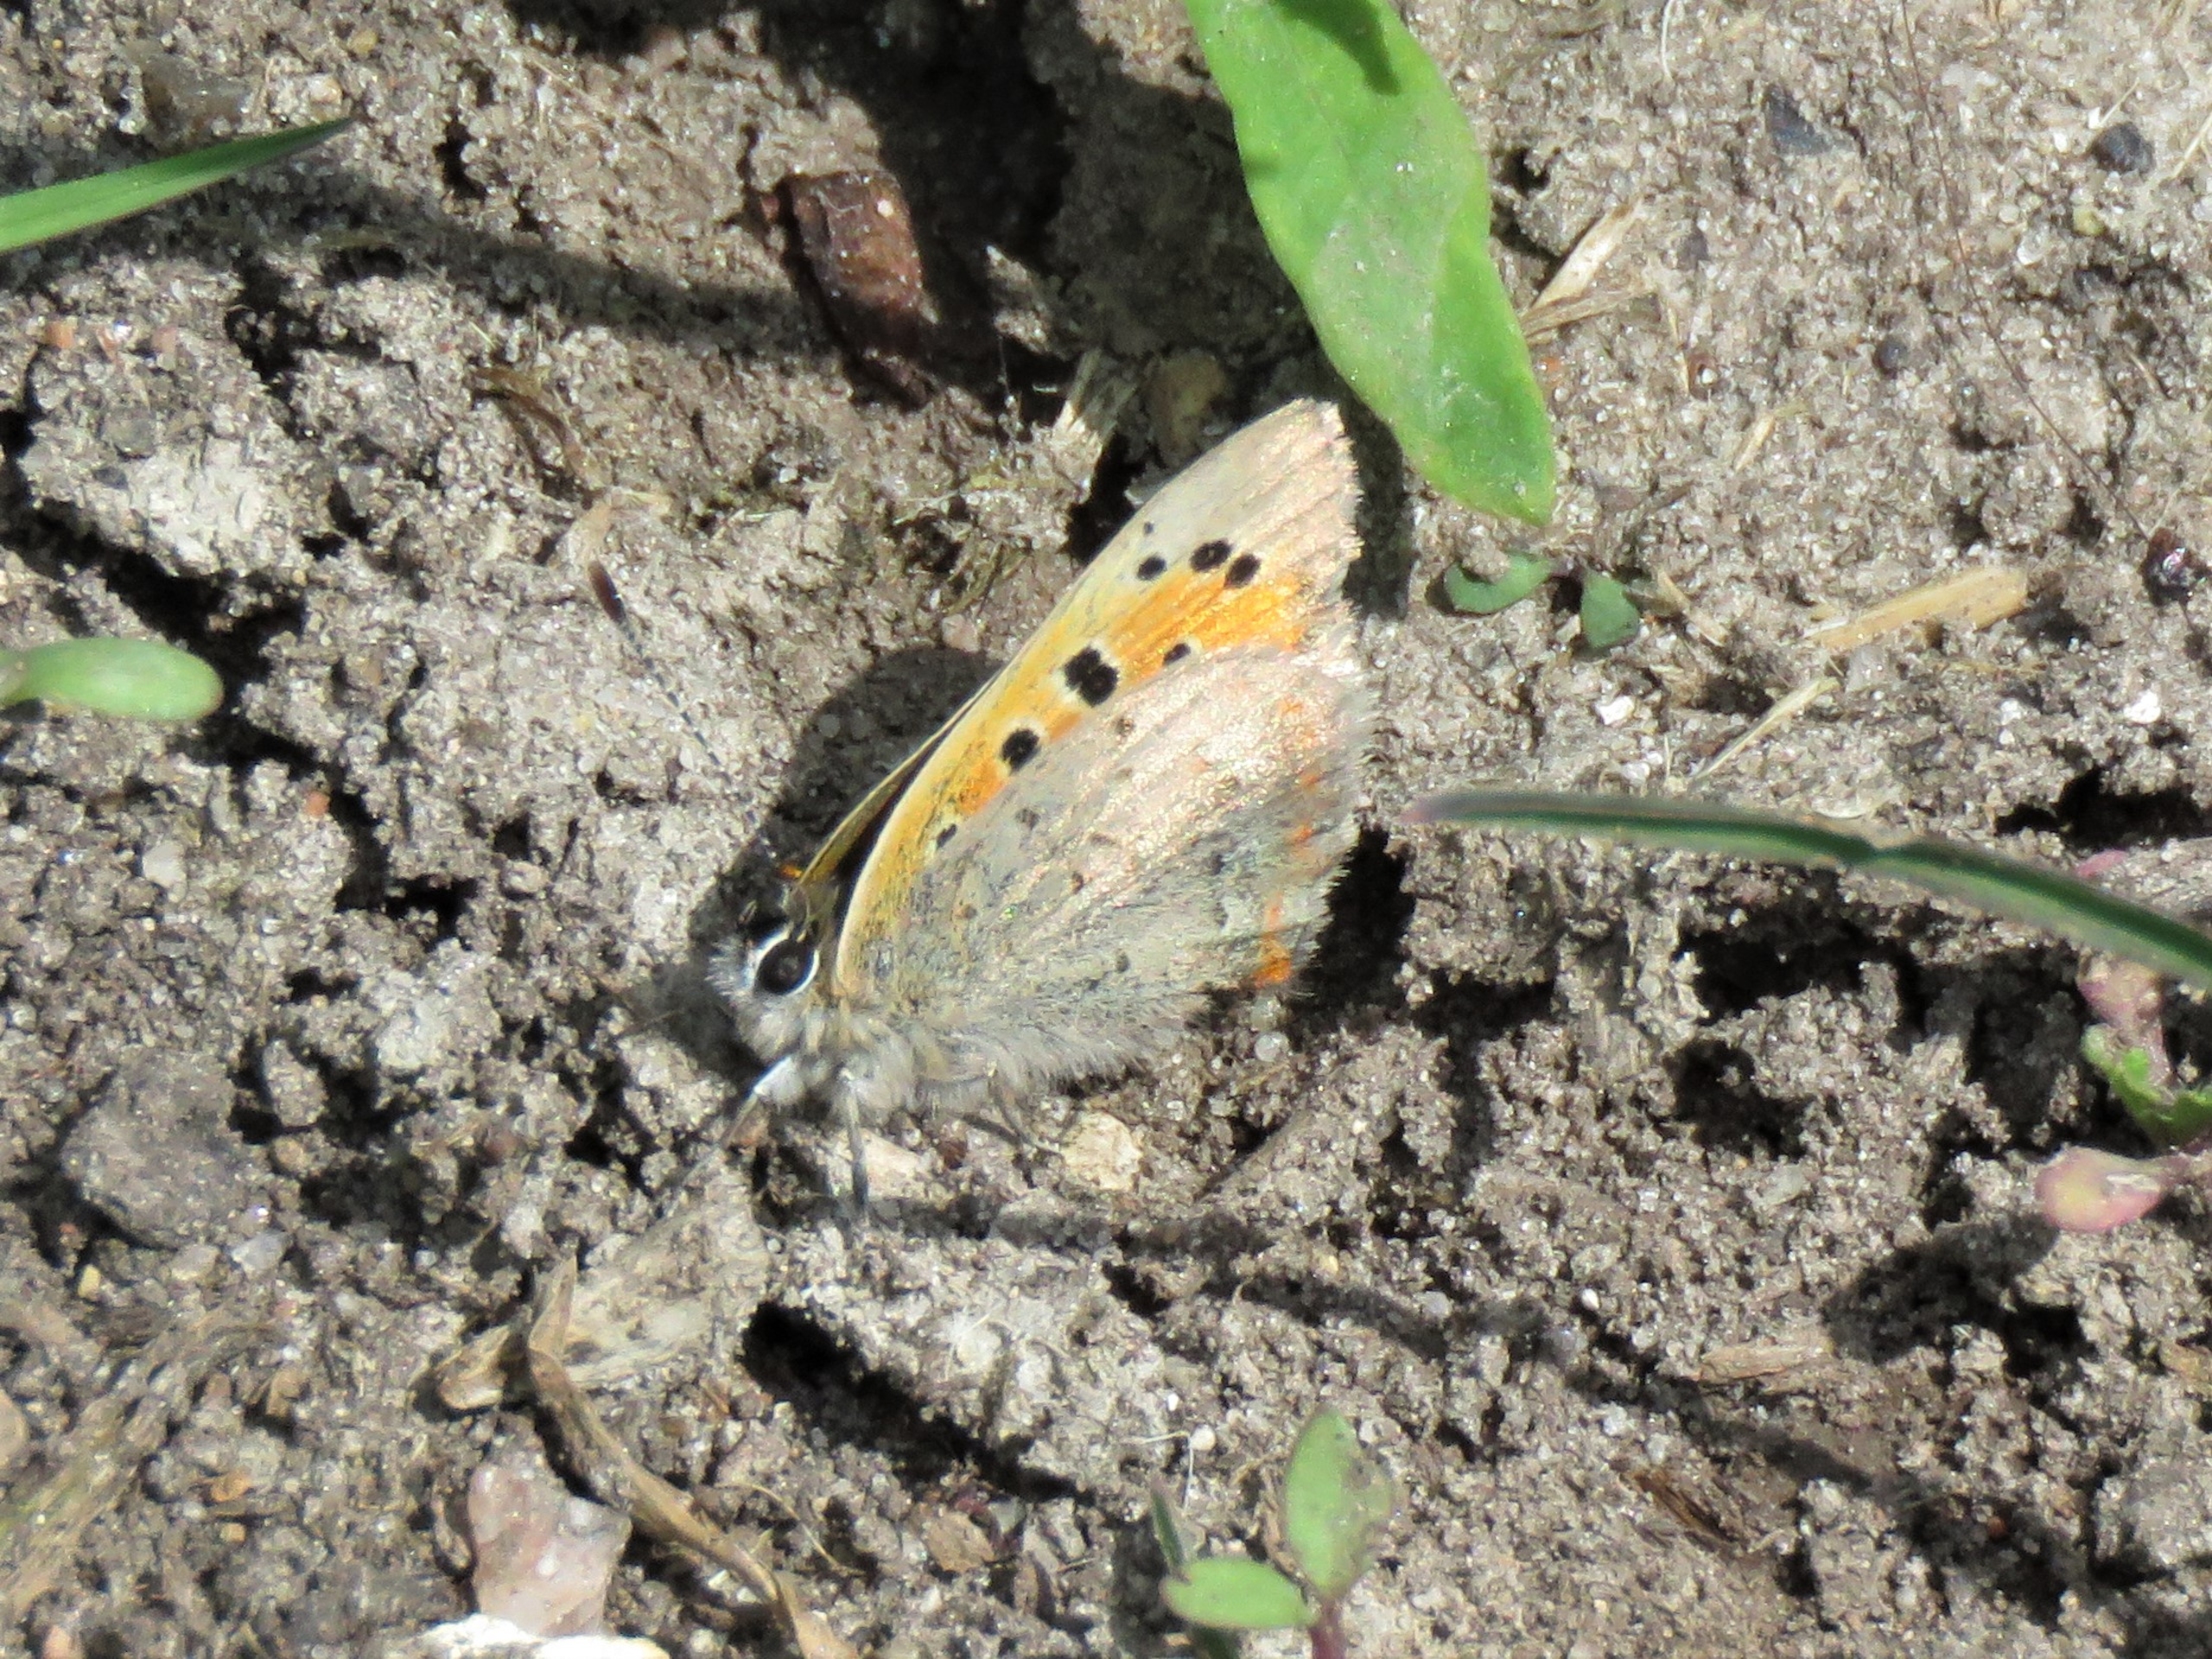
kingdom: Animalia
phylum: Arthropoda
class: Insecta
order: Lepidoptera
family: Lycaenidae
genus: Lycaena
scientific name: Lycaena phlaeas
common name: Lille ildfugl
